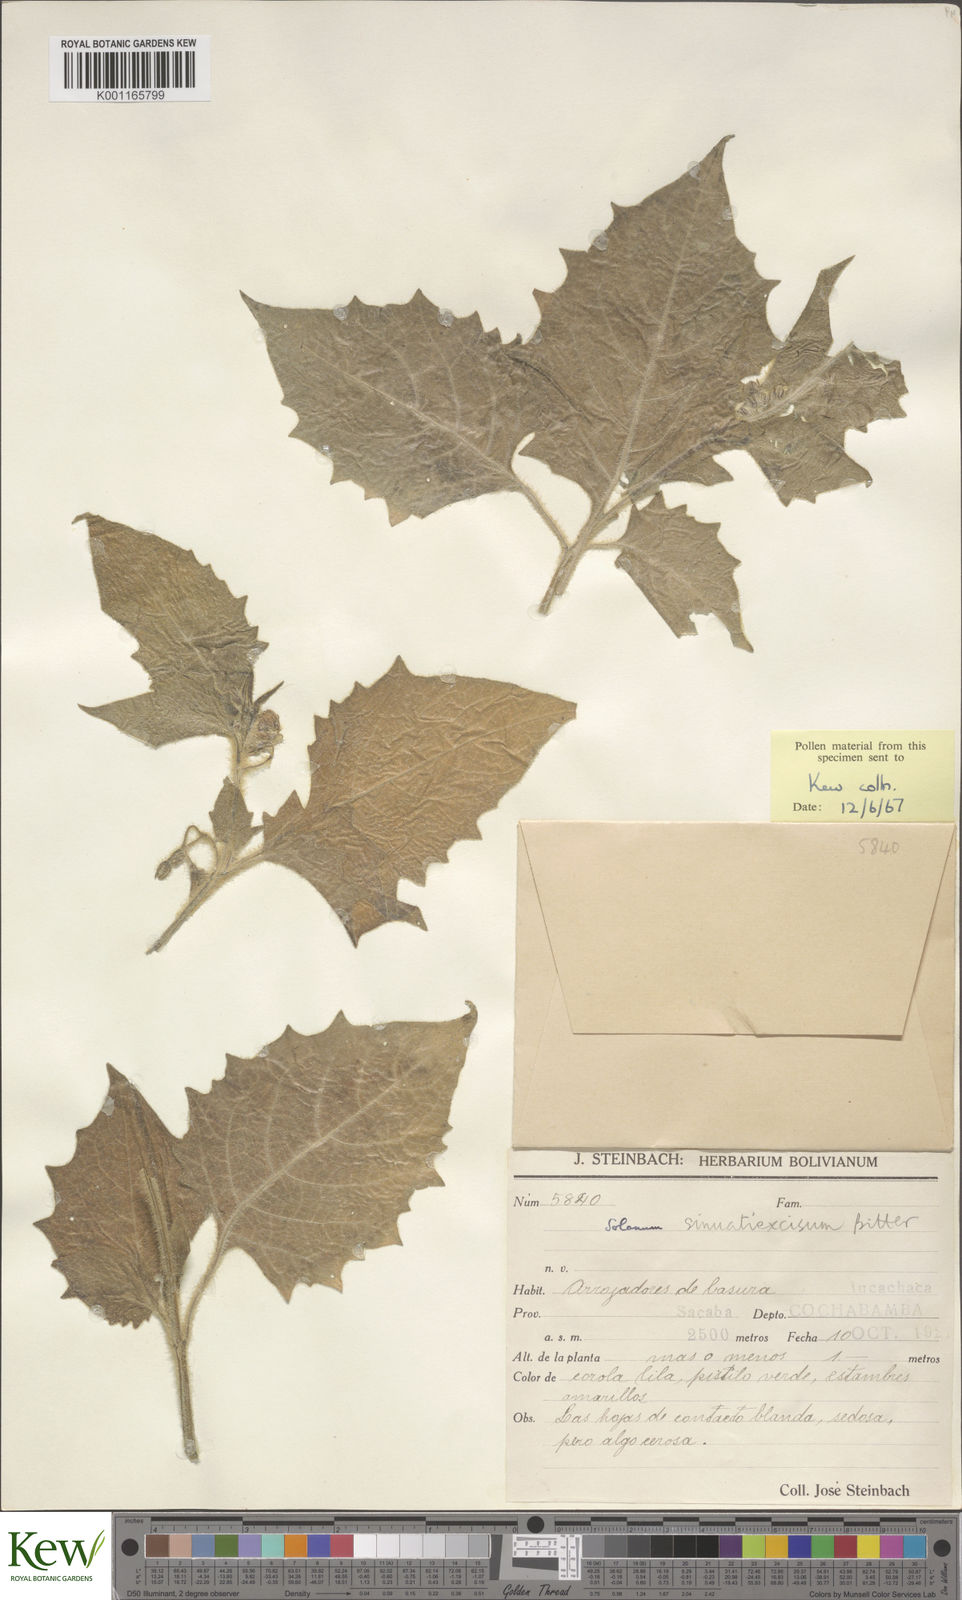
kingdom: Plantae
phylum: Tracheophyta
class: Magnoliopsida
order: Solanales
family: Solanaceae
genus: Solanum
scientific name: Solanum sinuatiexcisum
